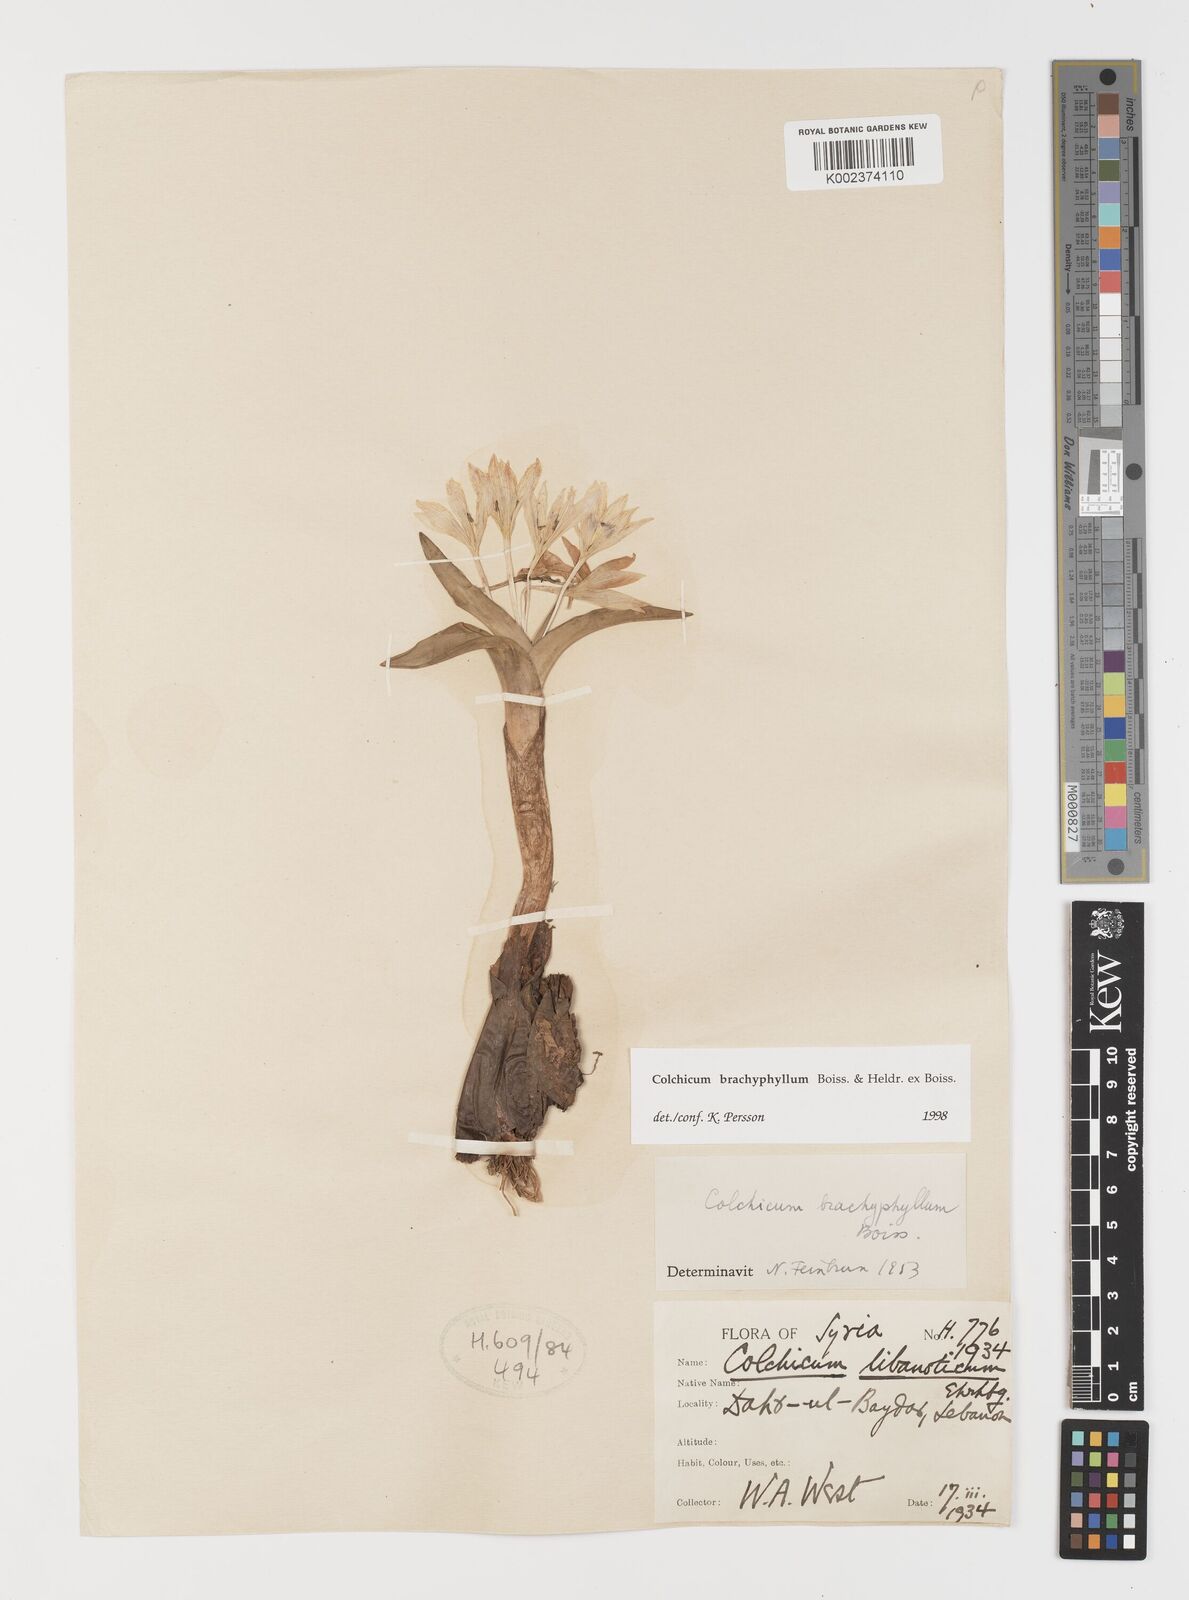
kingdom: Plantae
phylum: Tracheophyta
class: Liliopsida
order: Liliales
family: Colchicaceae
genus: Colchicum
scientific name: Colchicum szovitsii
